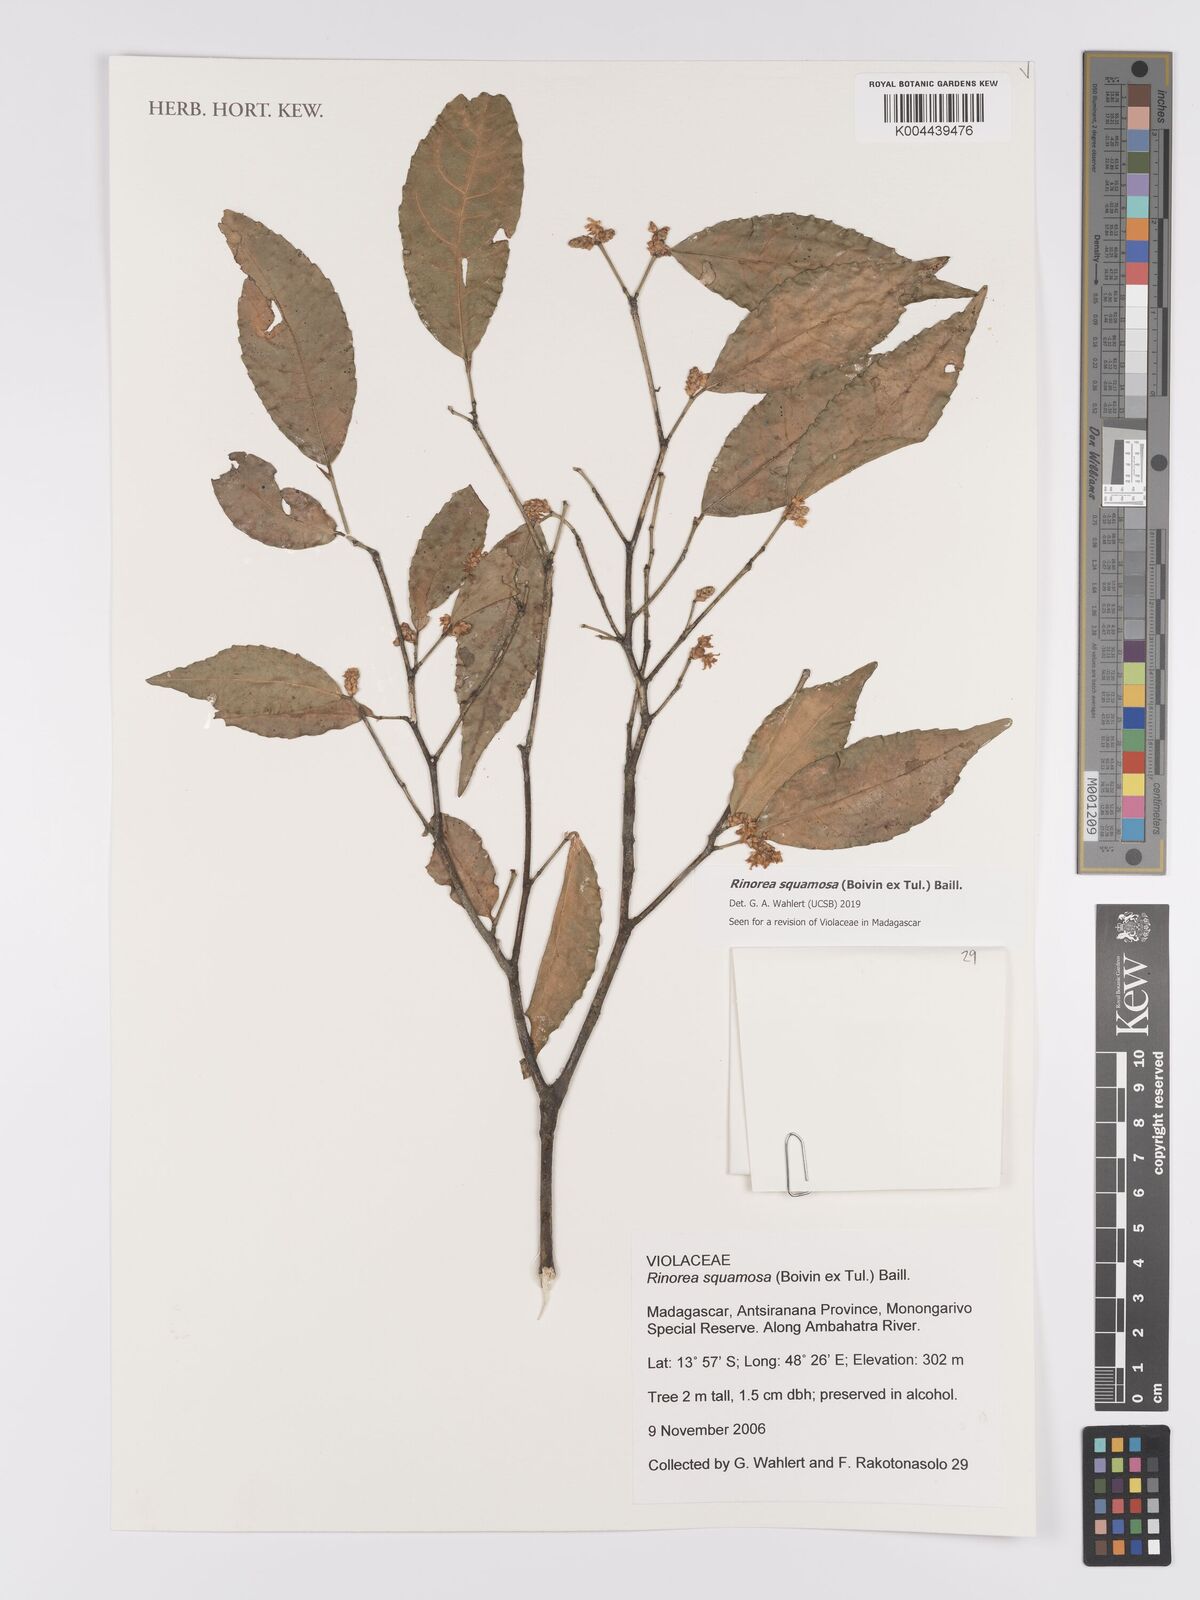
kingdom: Plantae
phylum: Tracheophyta
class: Magnoliopsida
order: Malpighiales
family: Violaceae
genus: Rinorea
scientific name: Rinorea squamosa
